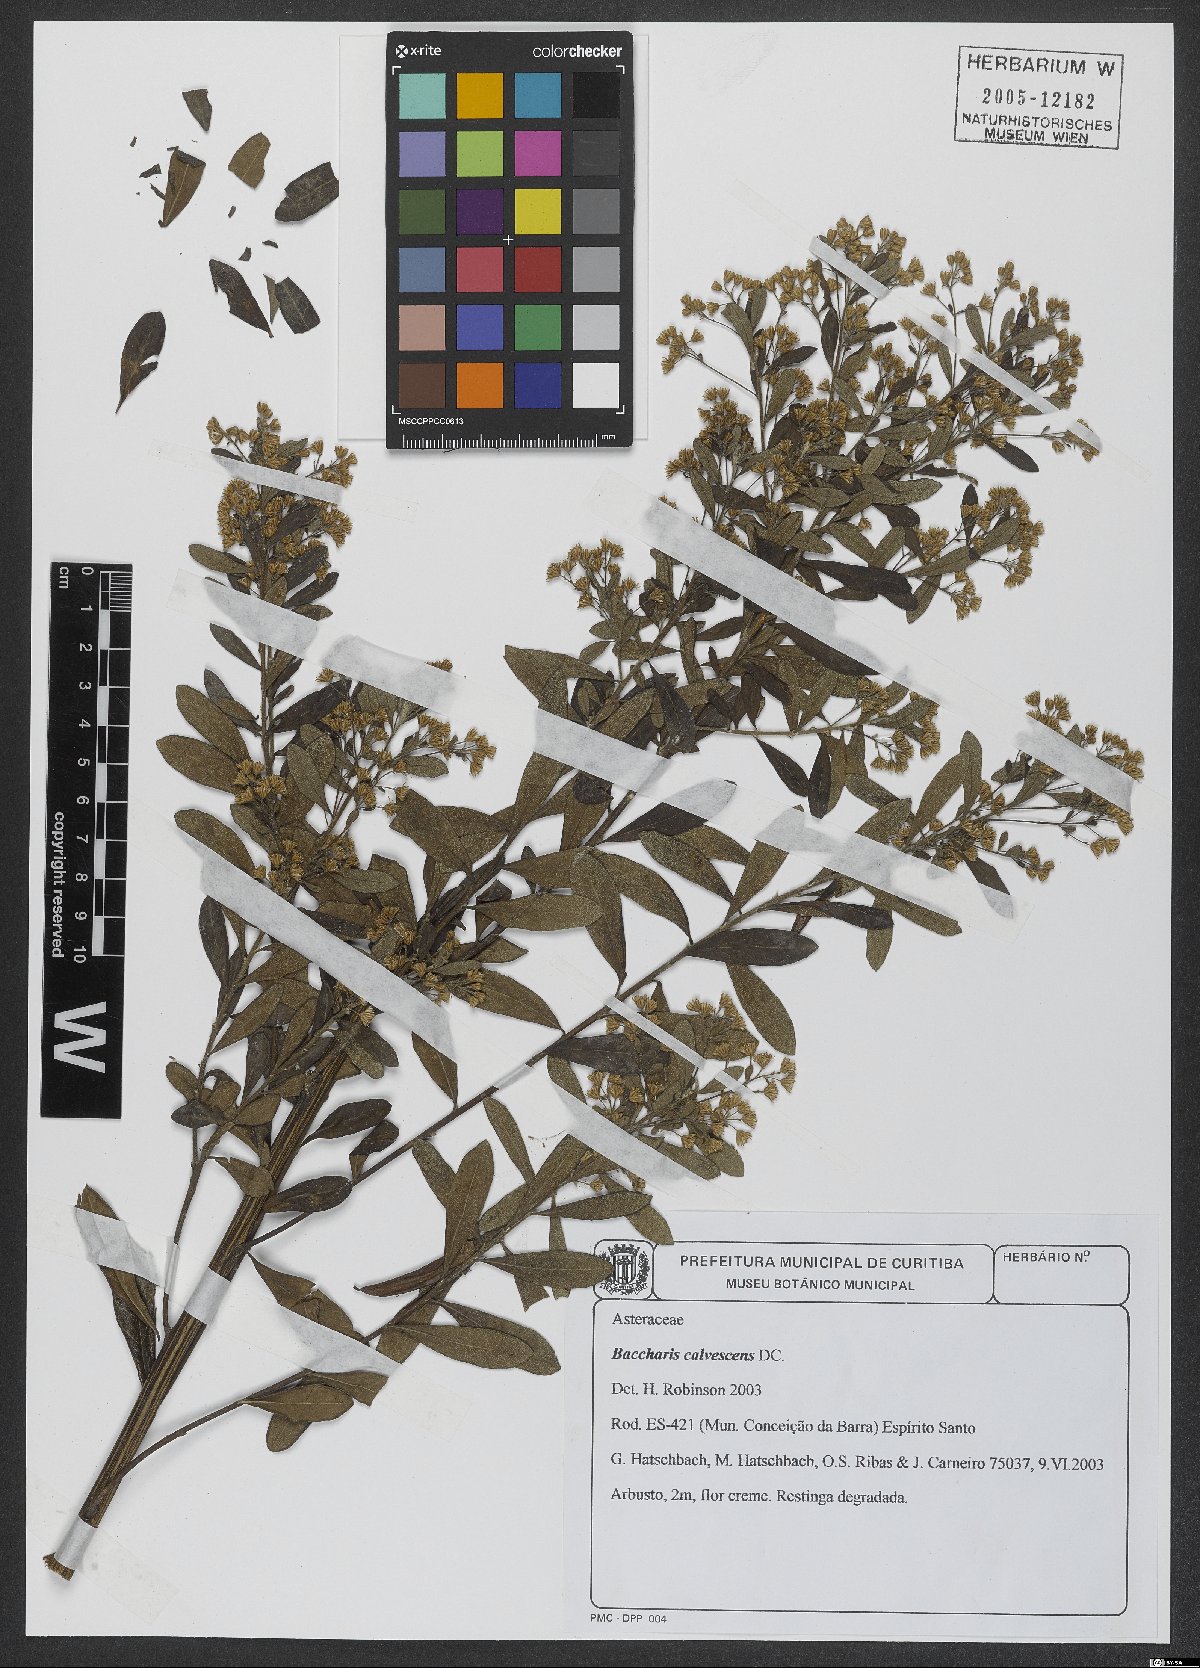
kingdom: Plantae
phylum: Tracheophyta
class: Magnoliopsida
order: Asterales
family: Asteraceae
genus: Baccharis
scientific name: Baccharis calvescens
